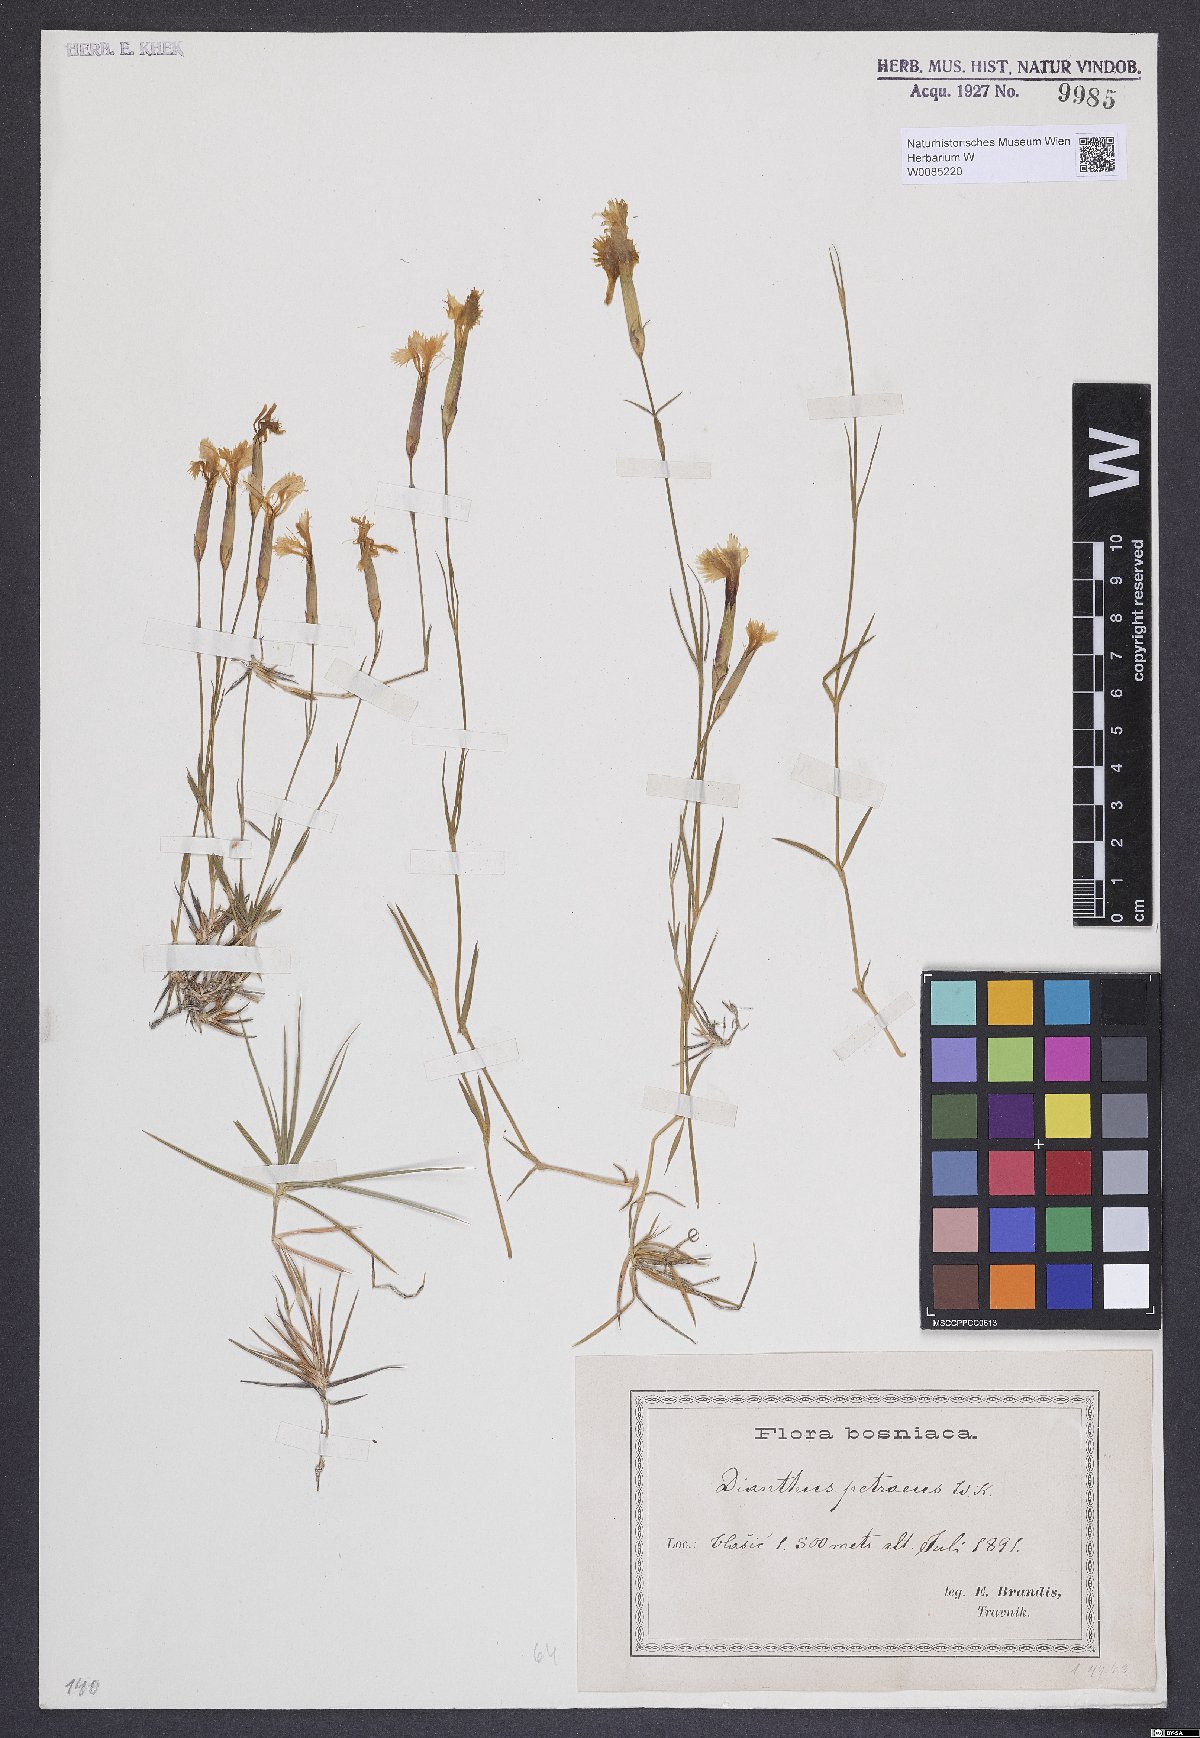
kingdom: Plantae
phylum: Tracheophyta
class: Magnoliopsida
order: Caryophyllales
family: Caryophyllaceae
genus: Dianthus
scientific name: Dianthus petraeus
